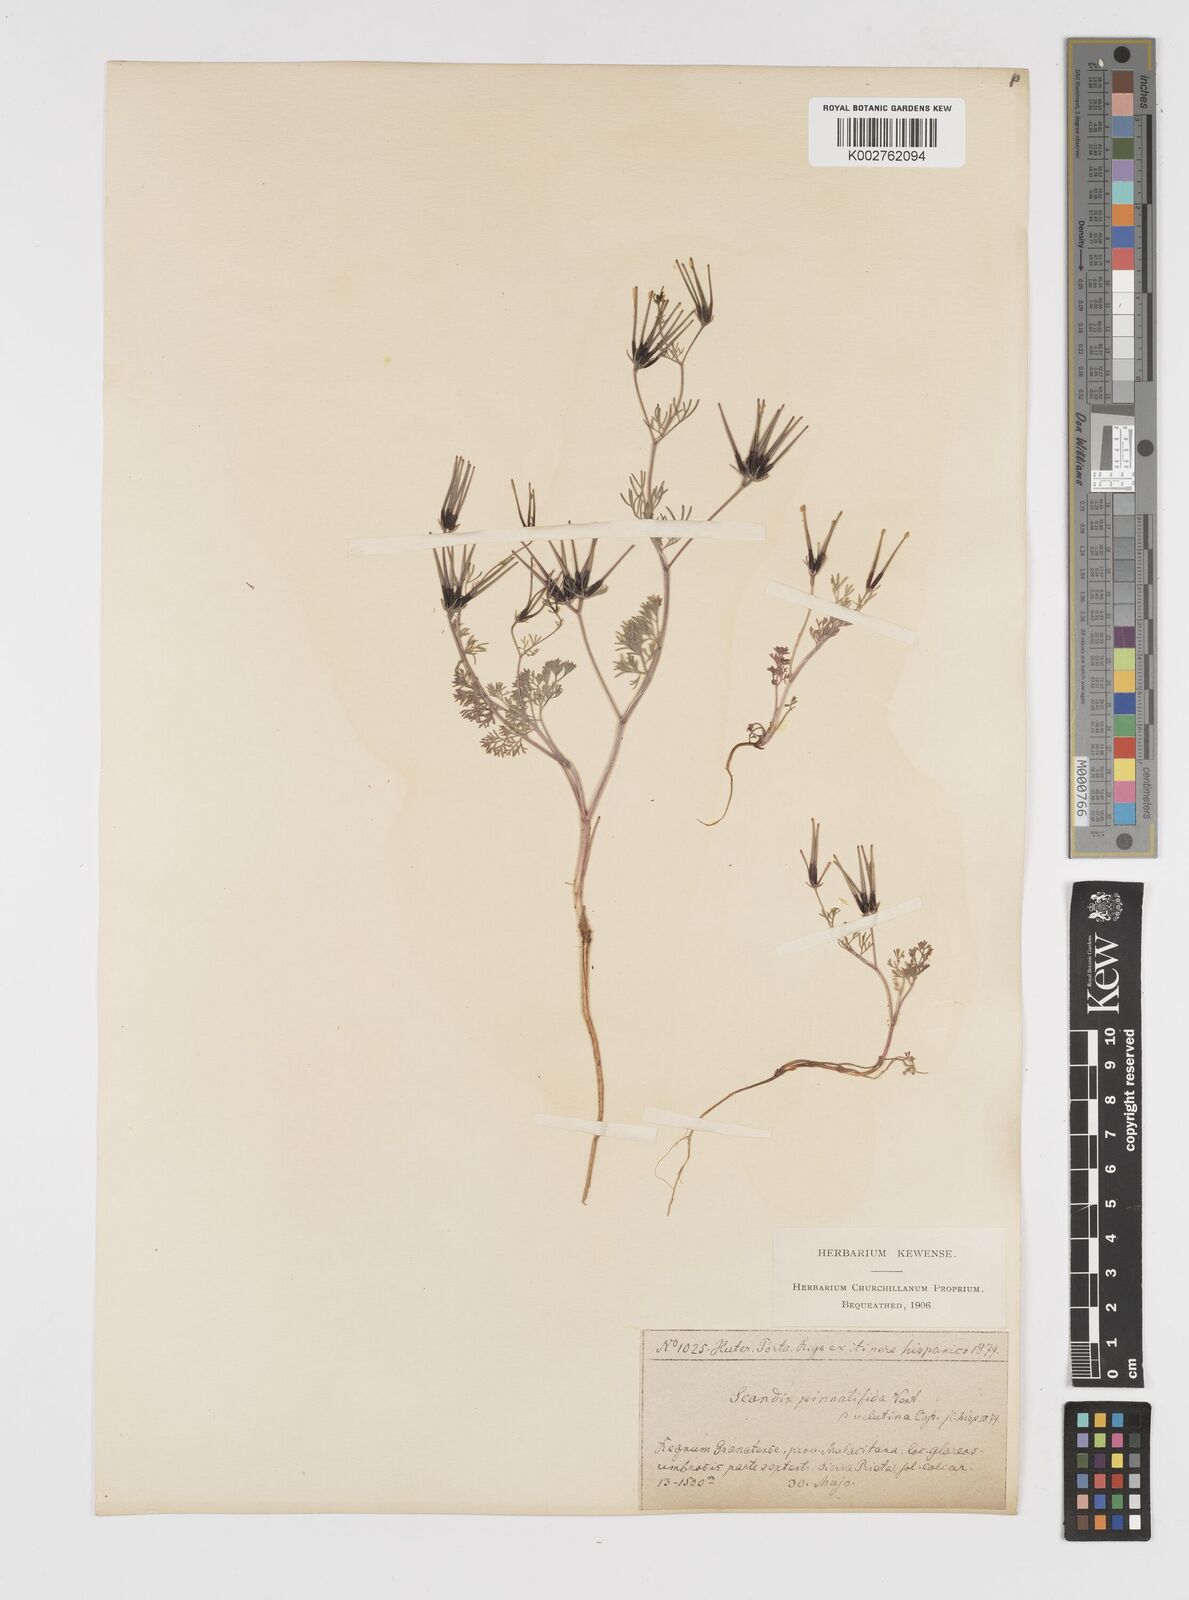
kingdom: Plantae
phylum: Tracheophyta
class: Magnoliopsida
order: Apiales
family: Apiaceae
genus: Scandix
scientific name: Scandix stellata
